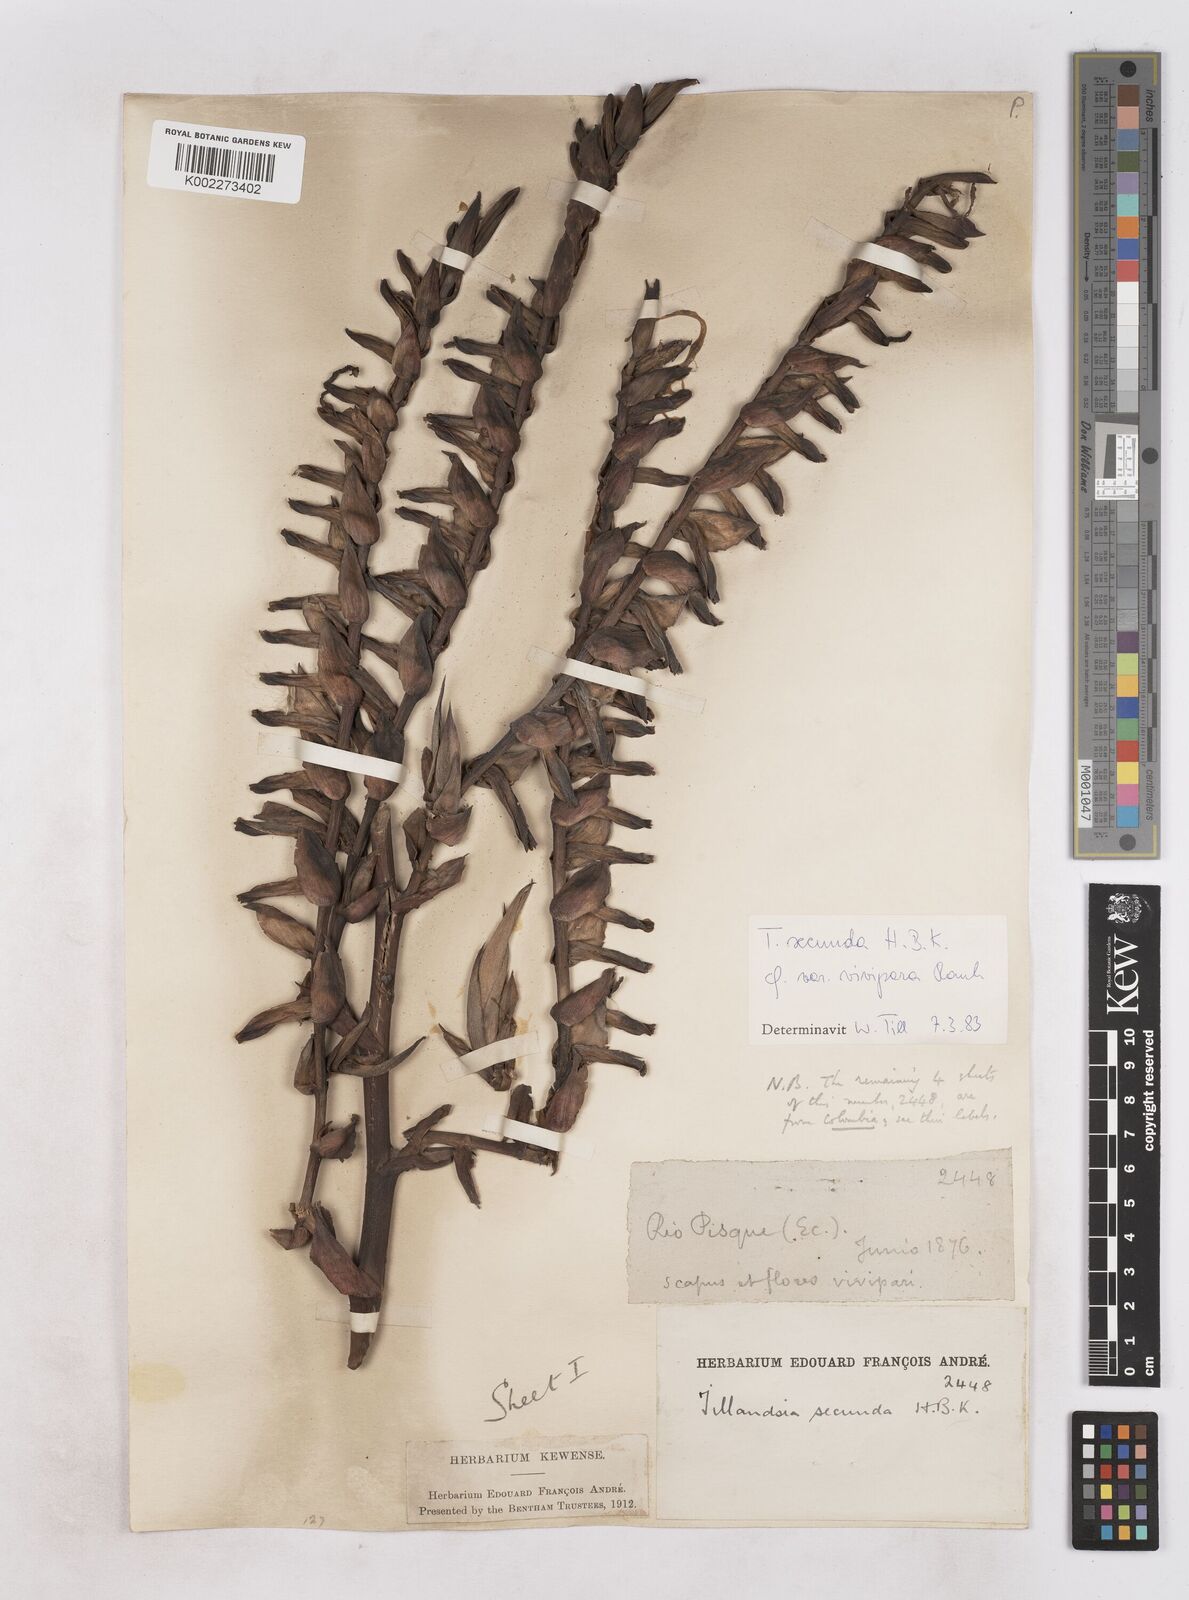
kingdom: Plantae
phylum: Tracheophyta
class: Liliopsida
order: Poales
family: Bromeliaceae
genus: Tillandsia
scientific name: Tillandsia secunda
